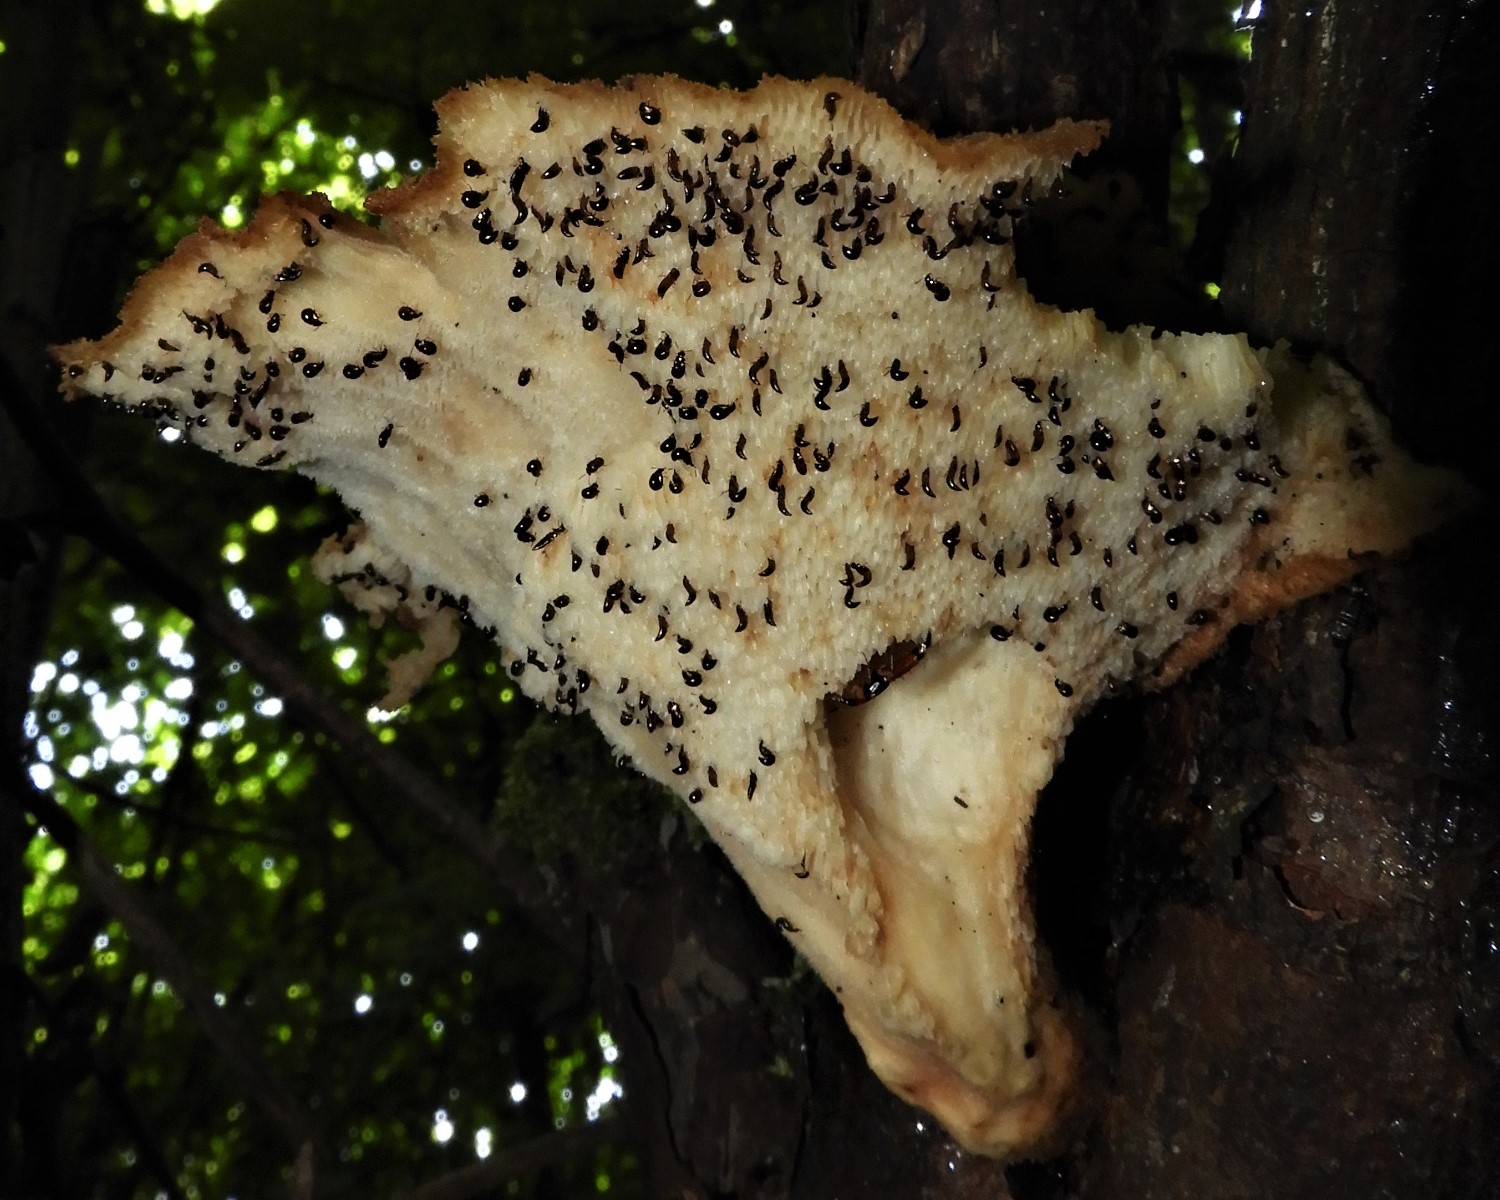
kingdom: Fungi
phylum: Basidiomycota
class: Agaricomycetes
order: Polyporales
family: Polyporaceae
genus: Cerioporus
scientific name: Cerioporus varius
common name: foranderlig stilkporesvamp
